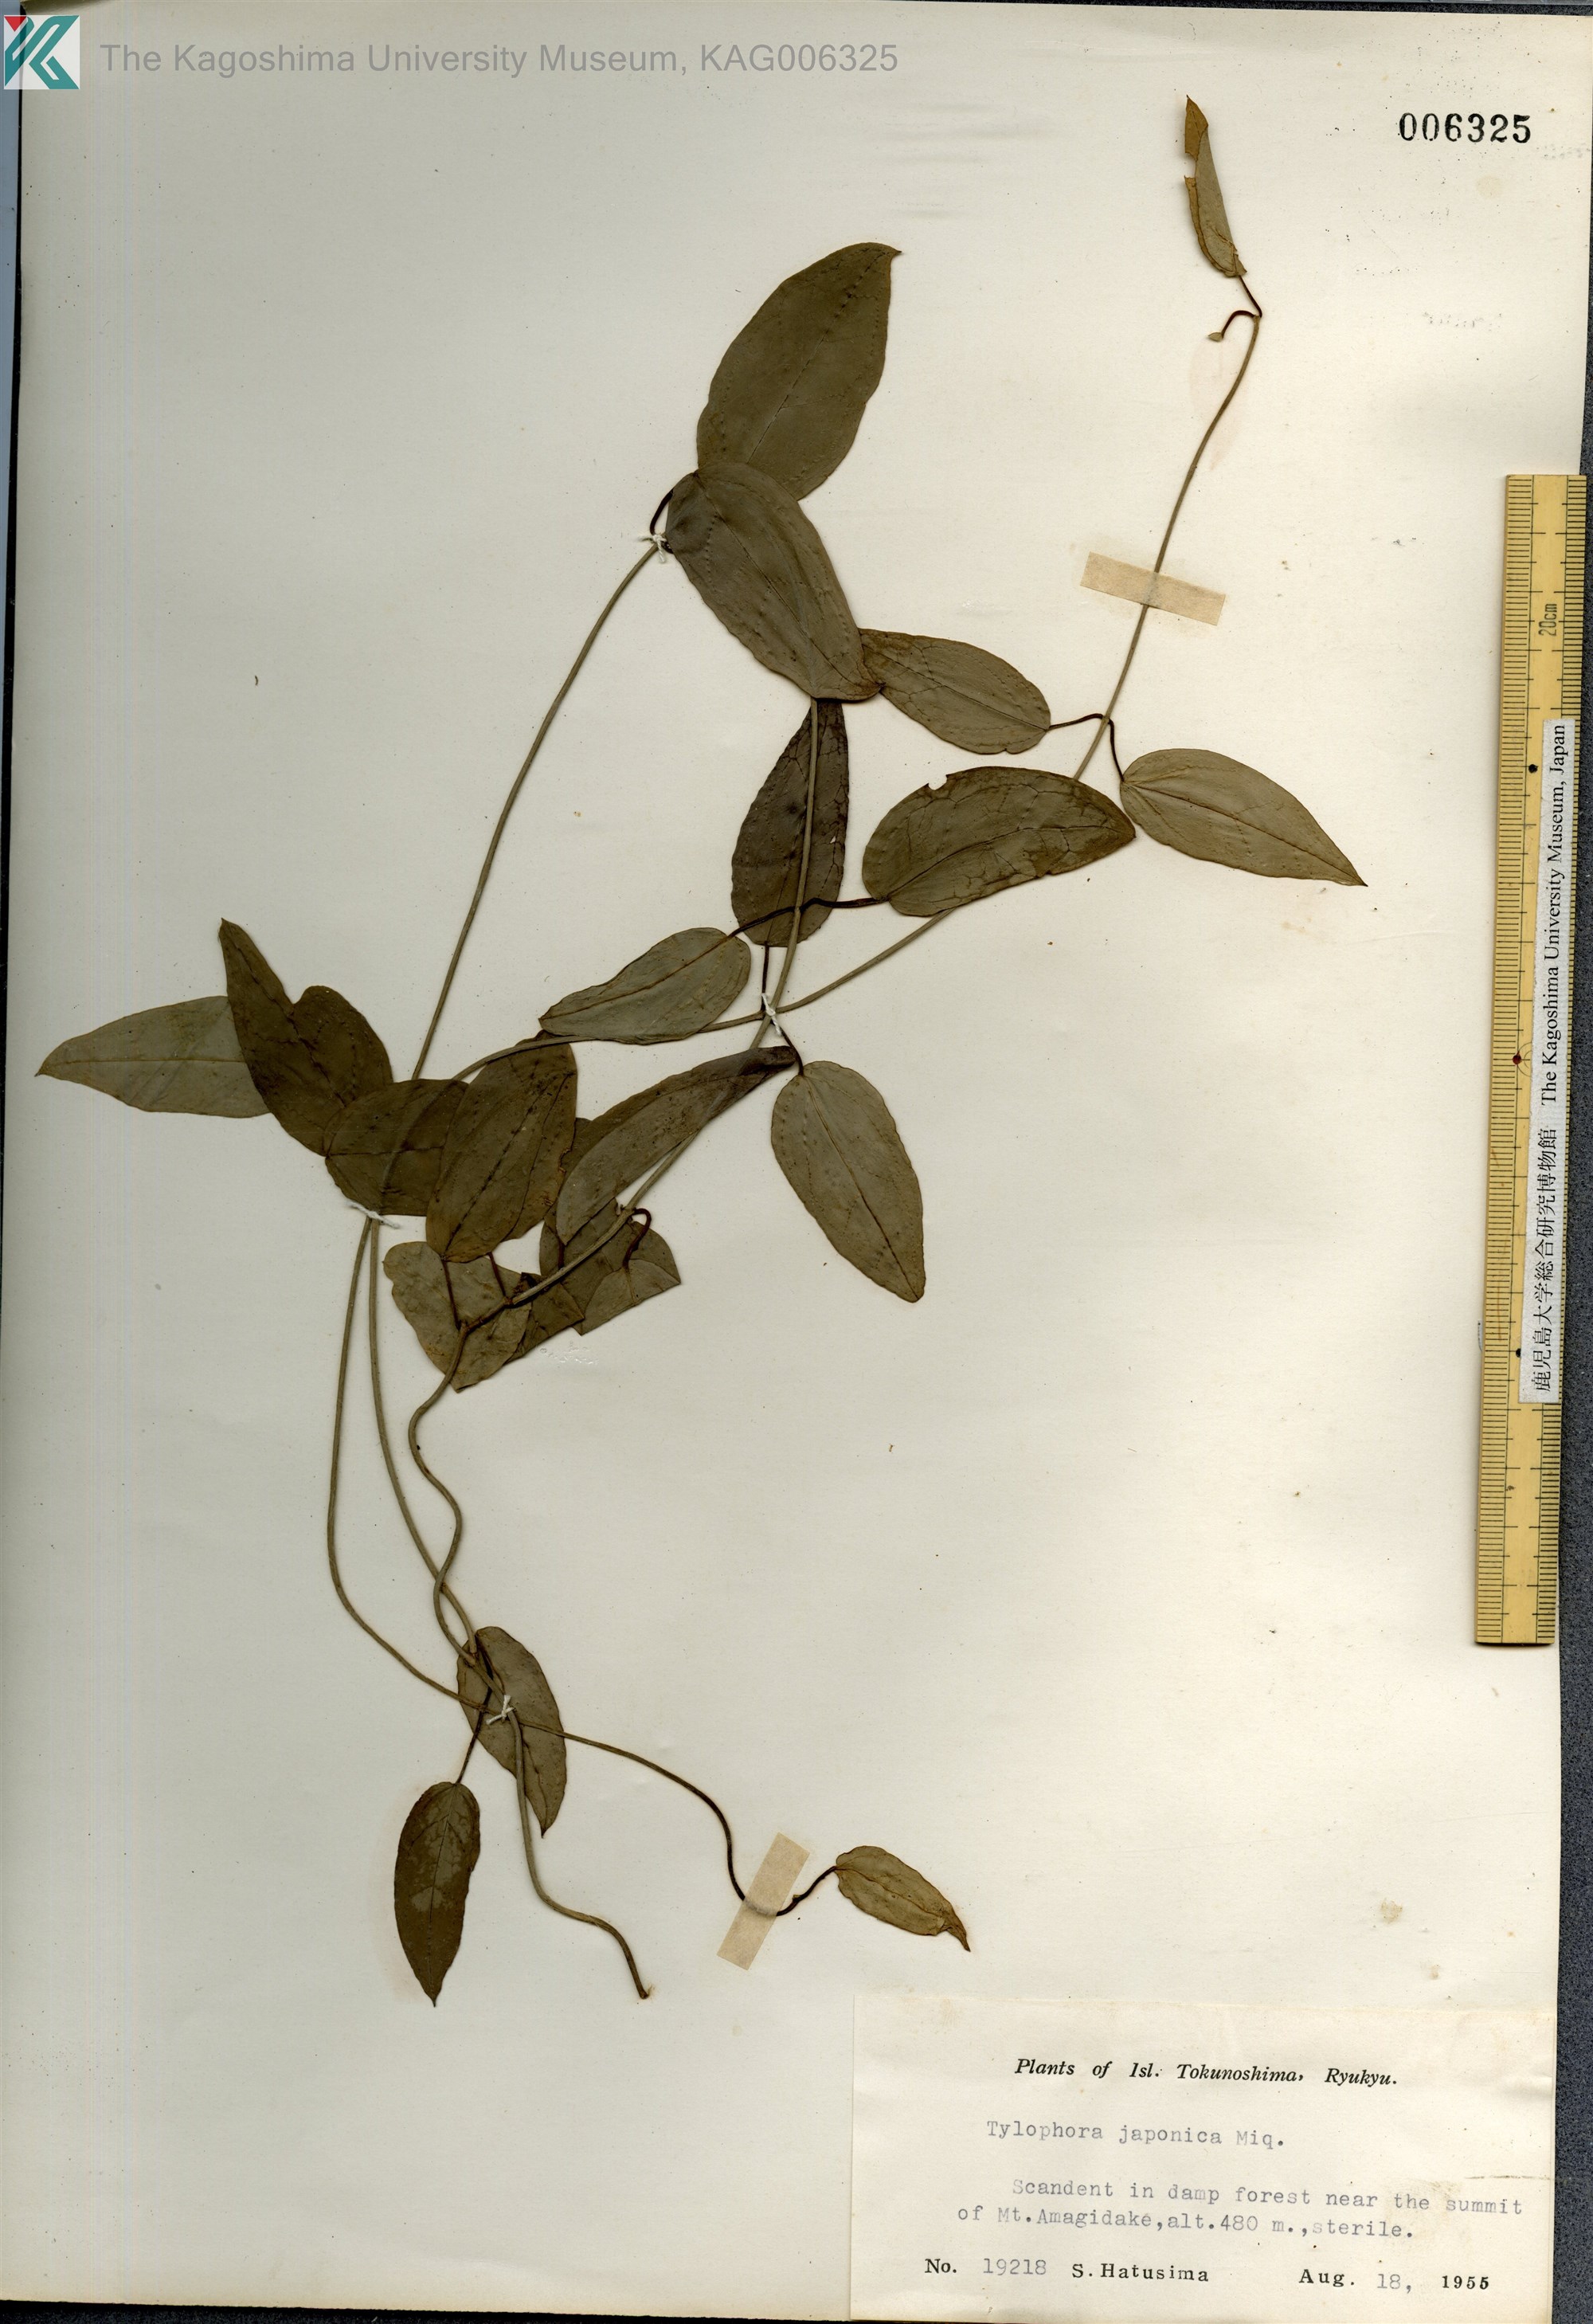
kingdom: Plantae
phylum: Tracheophyta
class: Magnoliopsida
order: Gentianales
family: Apocynaceae
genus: Vincetoxicum
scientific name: Vincetoxicum sieboldii
